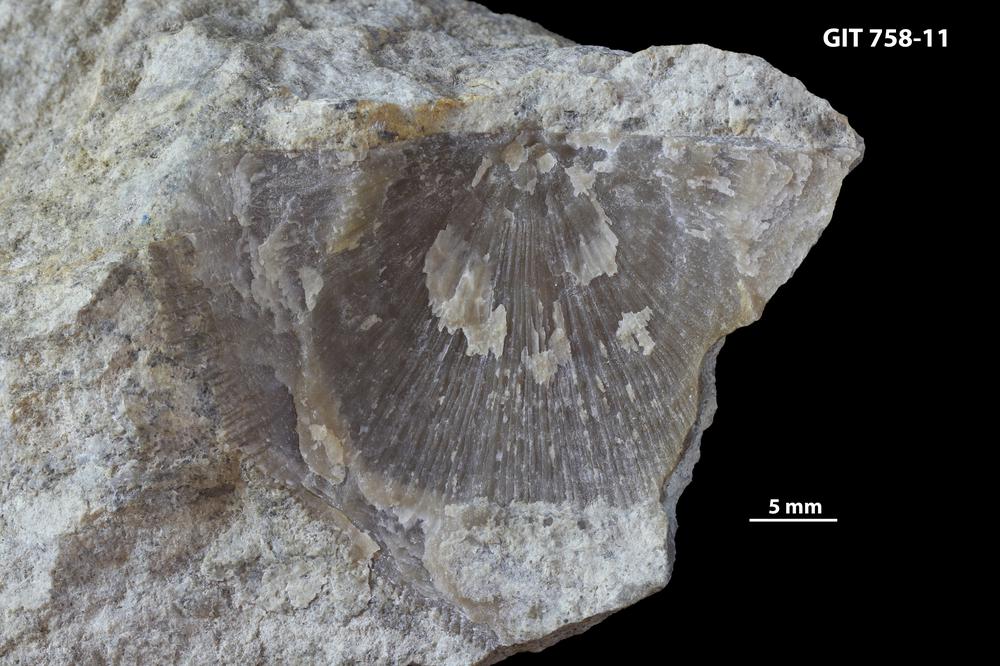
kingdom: Animalia
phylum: Brachiopoda
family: Gonambonitidae
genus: Antigonambonites
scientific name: Antigonambonites aequistriatus
